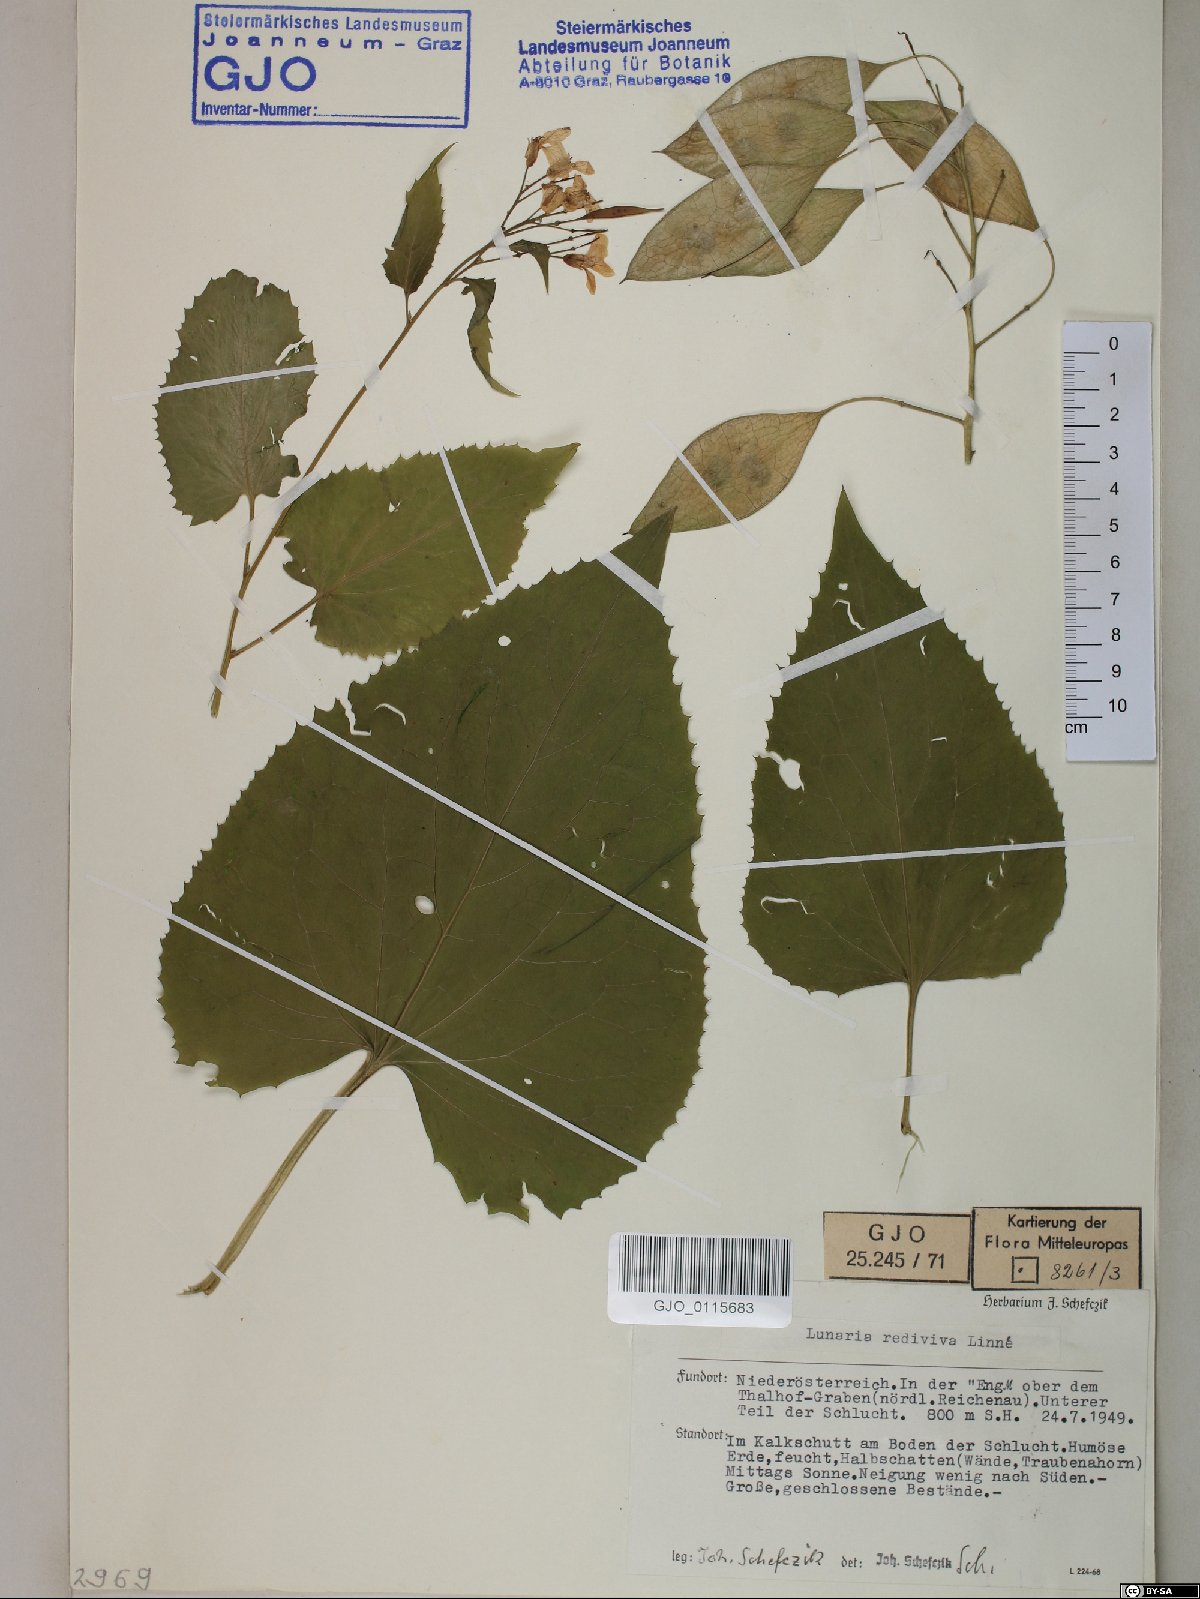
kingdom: Plantae
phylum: Tracheophyta
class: Magnoliopsida
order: Brassicales
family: Brassicaceae
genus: Lunaria
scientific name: Lunaria rediviva
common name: Perennial honesty
